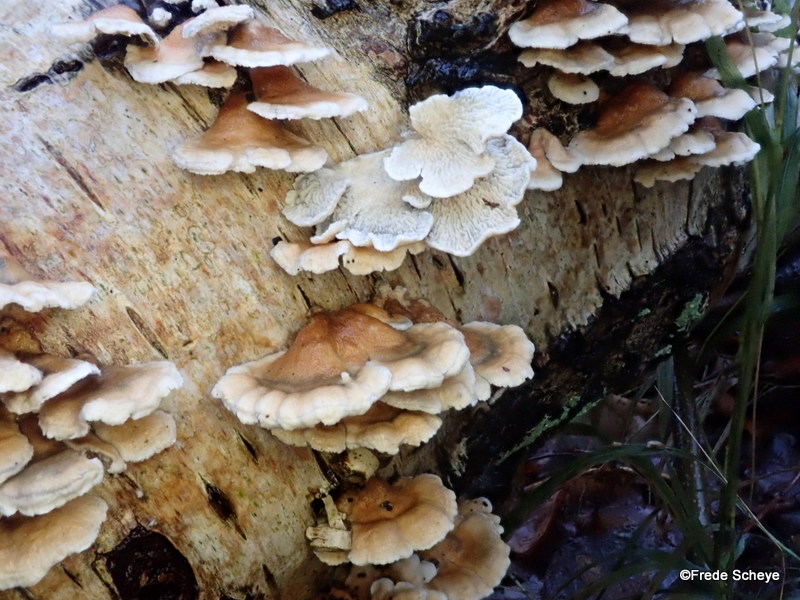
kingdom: Fungi
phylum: Basidiomycota
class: Agaricomycetes
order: Amylocorticiales
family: Amylocorticiaceae
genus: Plicaturopsis
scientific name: Plicaturopsis crispa
